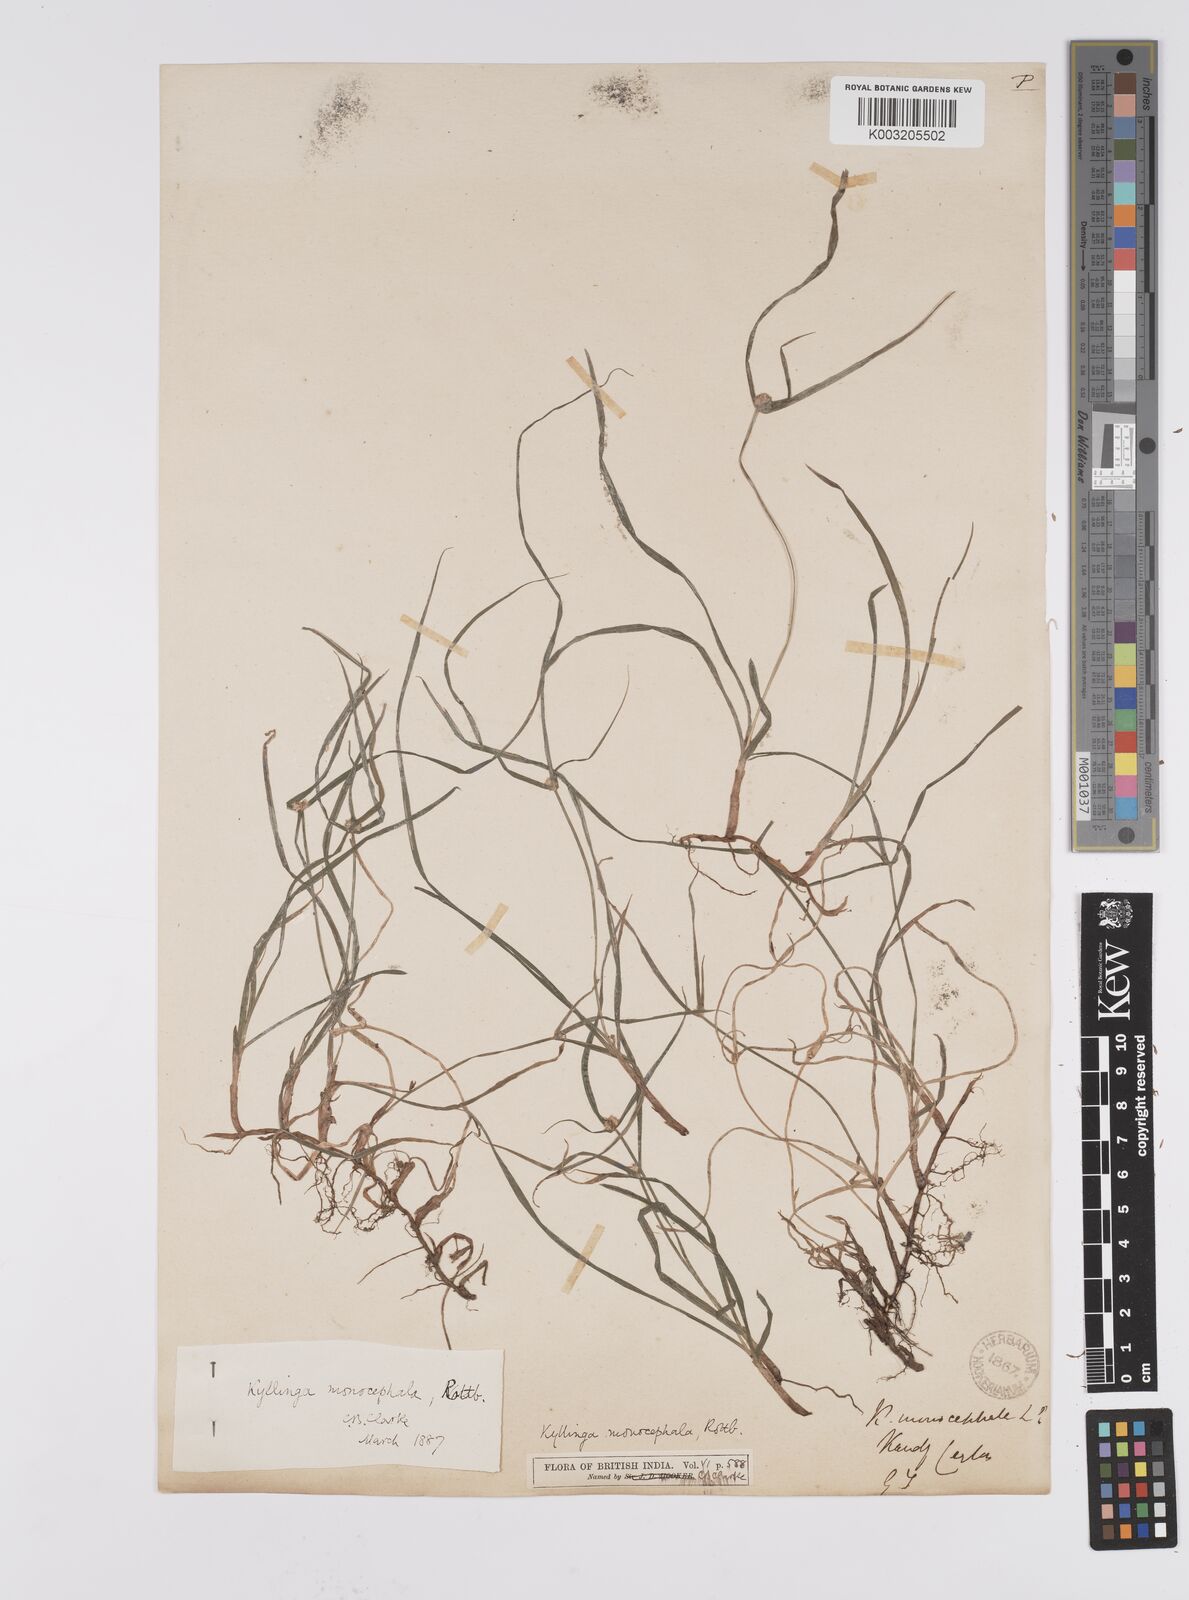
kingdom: Plantae
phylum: Tracheophyta
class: Liliopsida
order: Poales
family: Cyperaceae
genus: Cyperus
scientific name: Cyperus nemoralis
